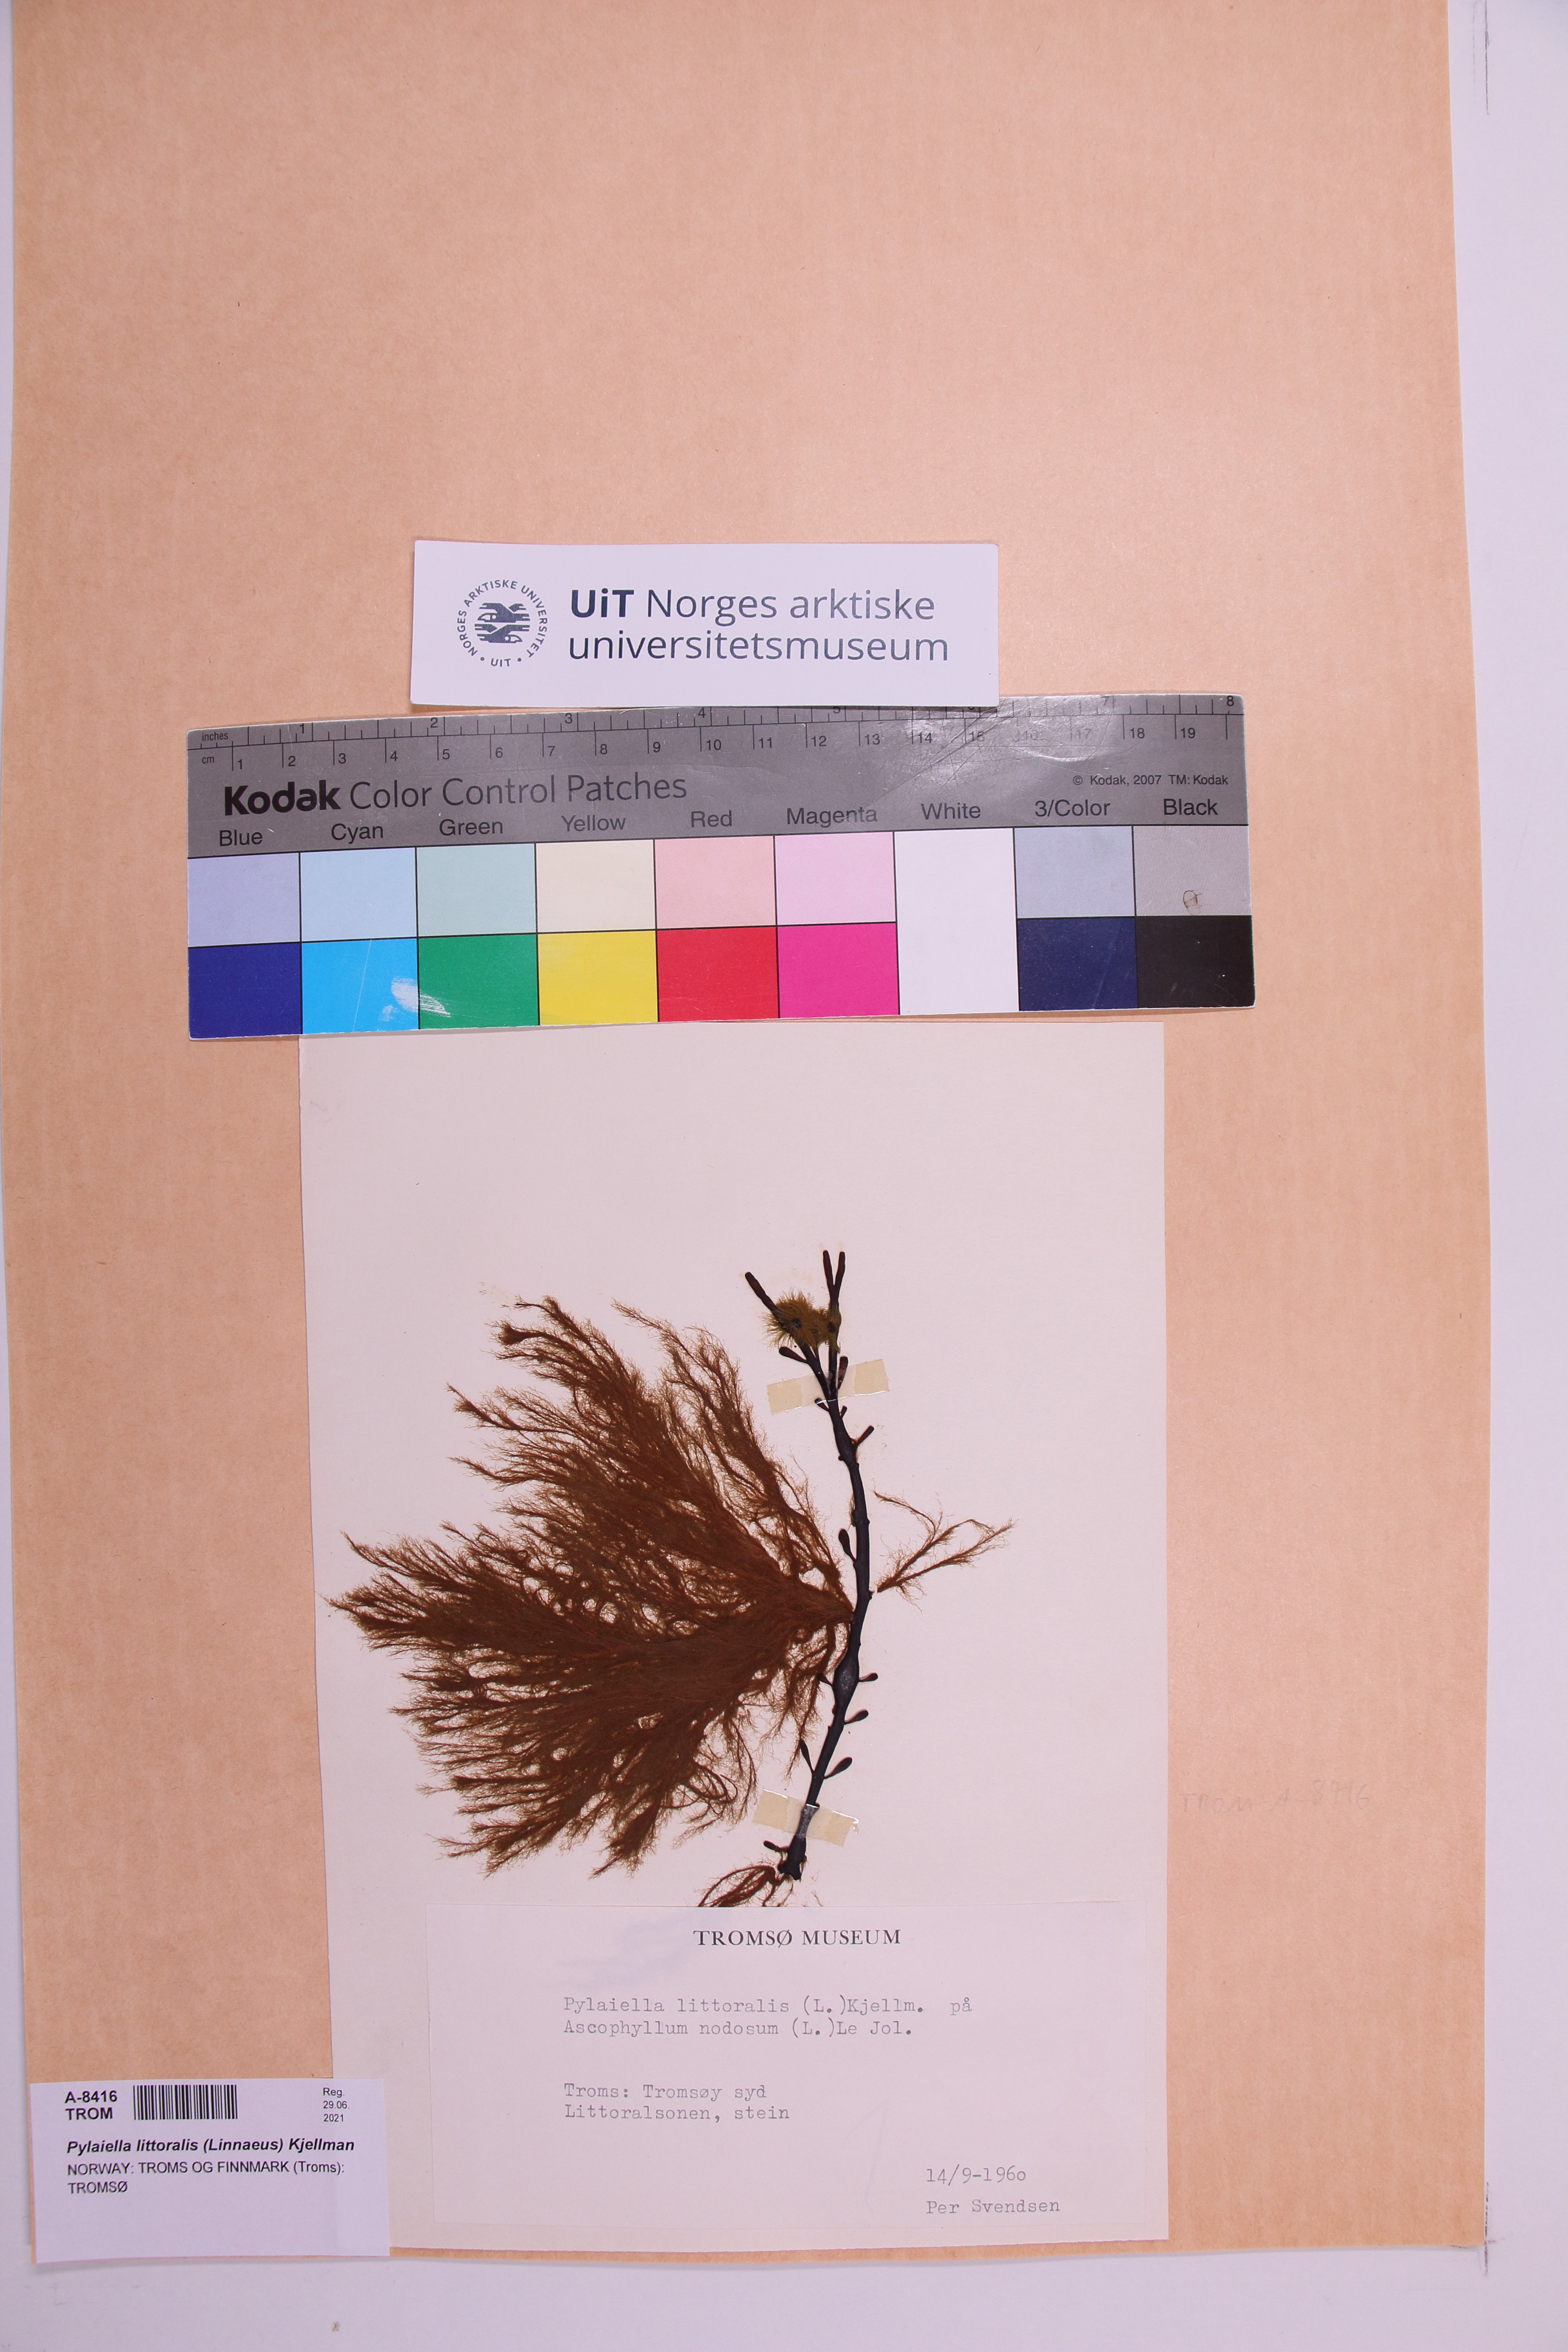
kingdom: Chromista
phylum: Ochrophyta
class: Phaeophyceae
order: Ectocarpales
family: Acinetosporaceae
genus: Pylaiella
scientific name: Pylaiella littoralis
